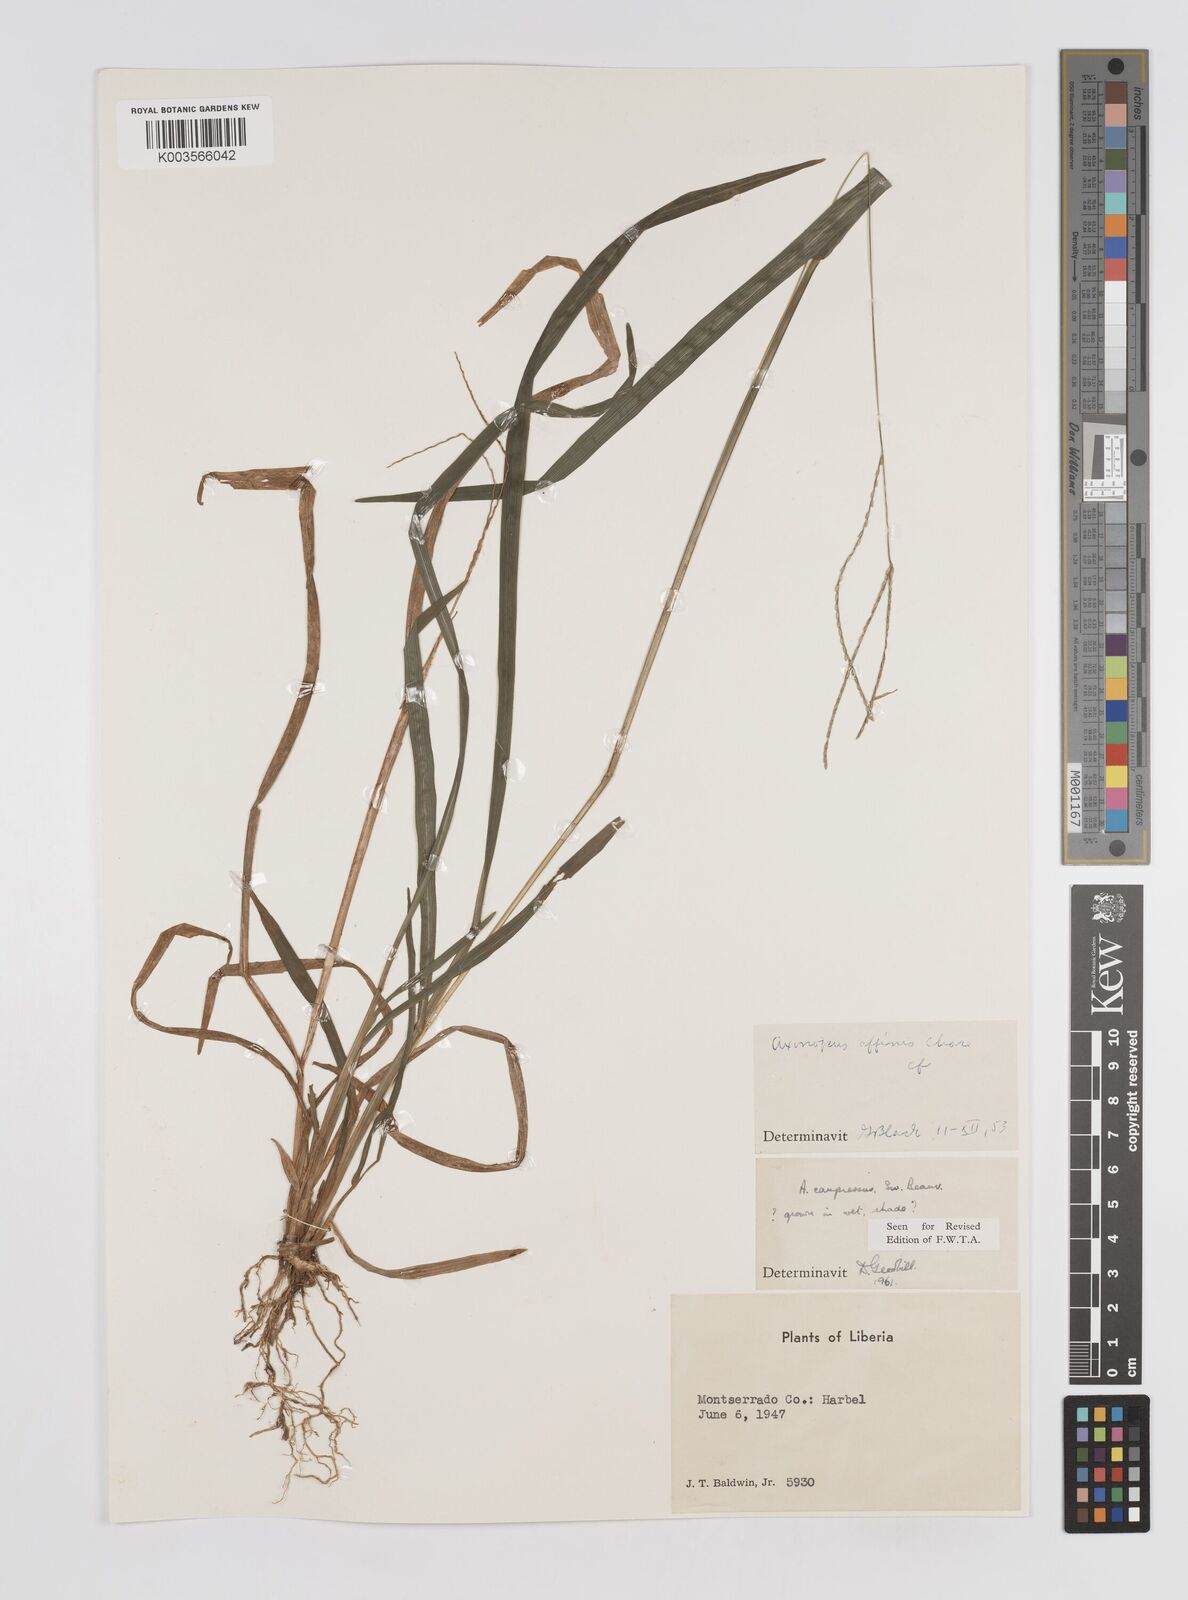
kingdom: Plantae
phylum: Tracheophyta
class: Liliopsida
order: Poales
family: Poaceae
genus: Axonopus
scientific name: Axonopus compressus
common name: American carpet grass
